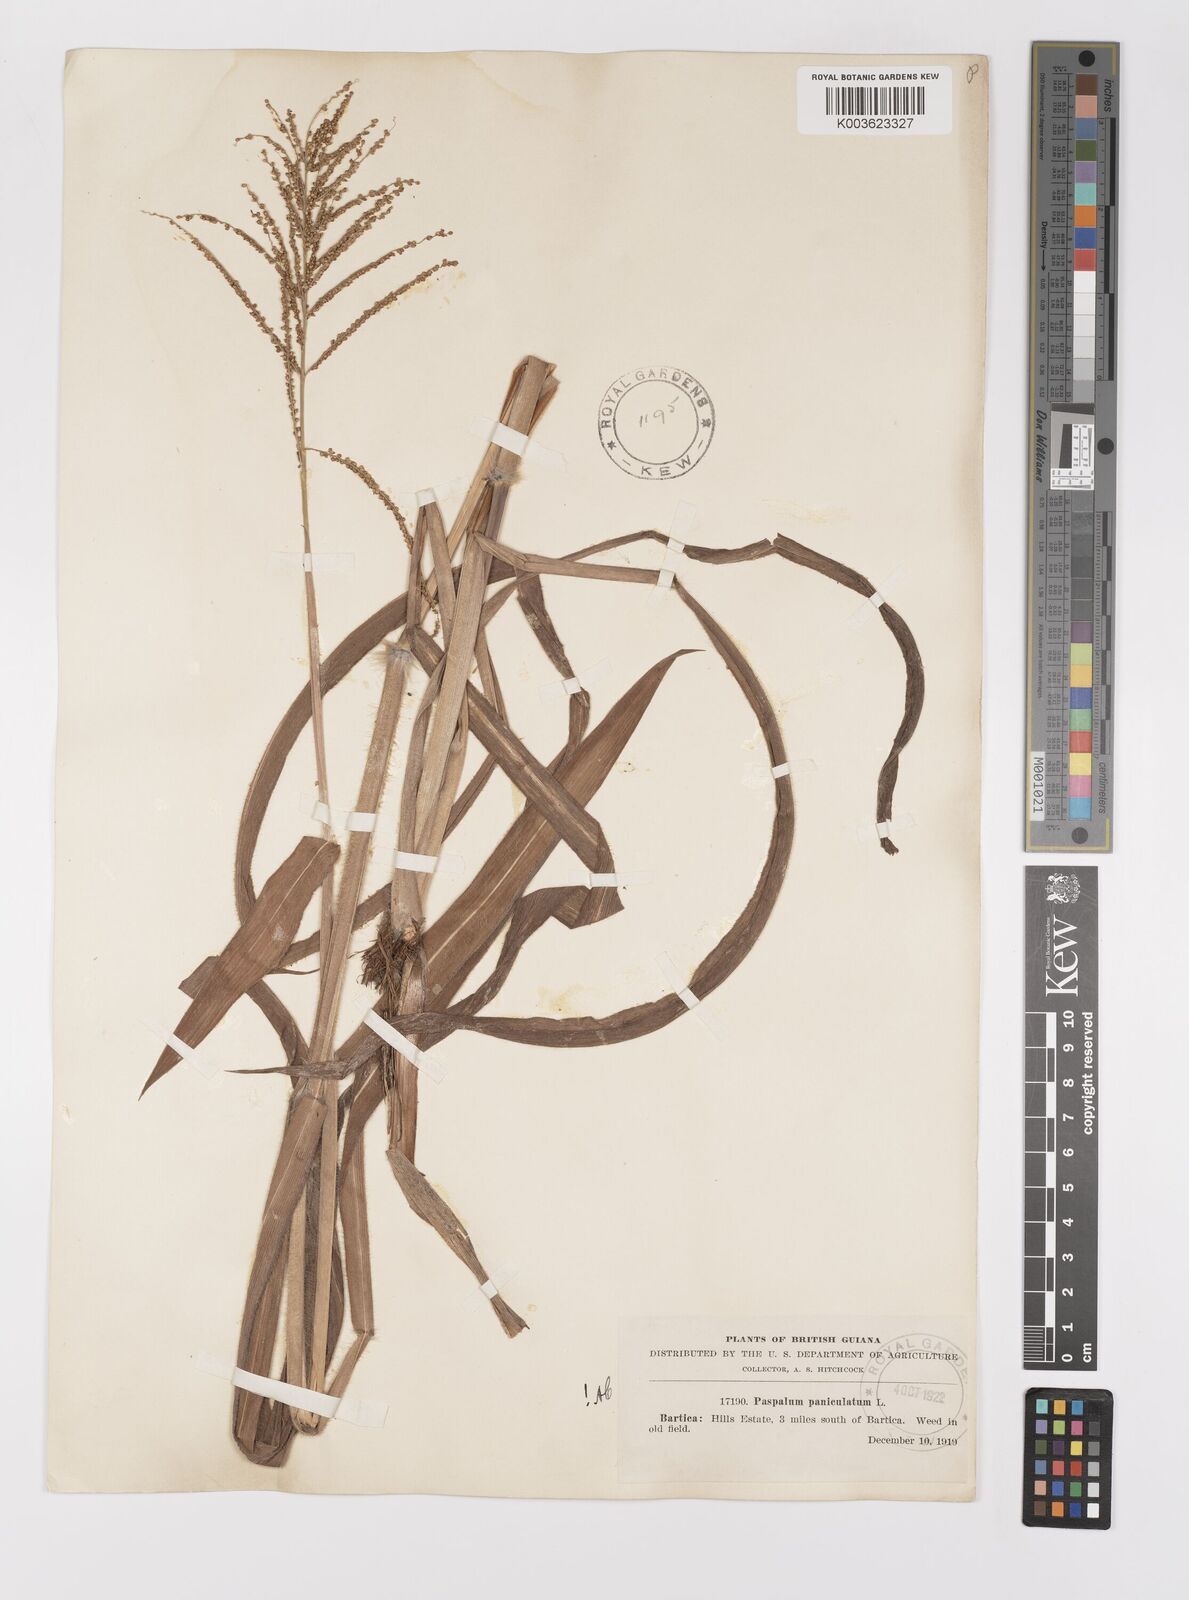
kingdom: Plantae
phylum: Tracheophyta
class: Liliopsida
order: Poales
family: Poaceae
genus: Paspalum
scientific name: Paspalum paniculatum
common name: Arrocillo
